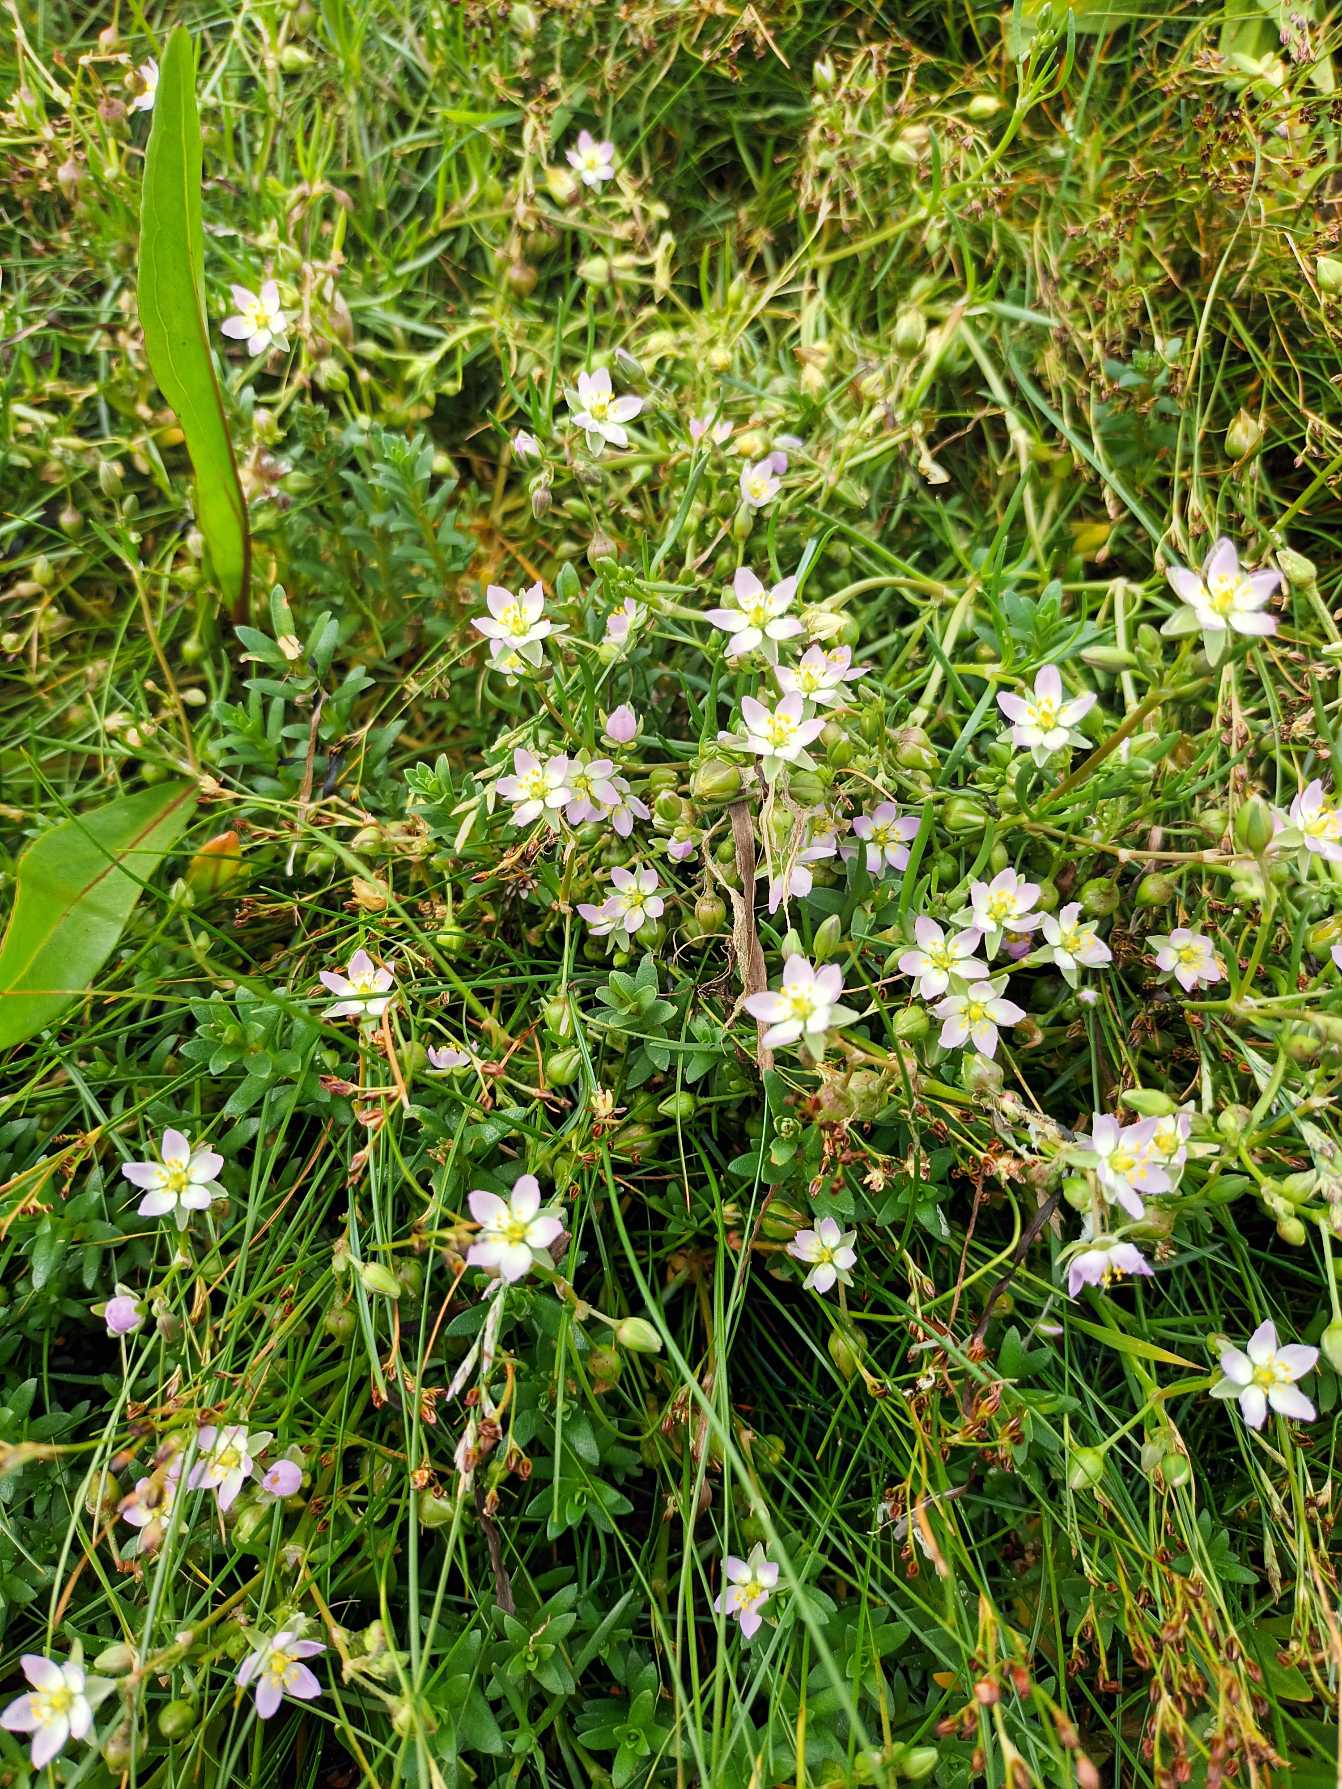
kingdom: Plantae
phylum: Tracheophyta
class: Magnoliopsida
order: Caryophyllales
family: Caryophyllaceae
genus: Spergularia
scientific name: Spergularia media
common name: Vingefrøet hindeknæ
